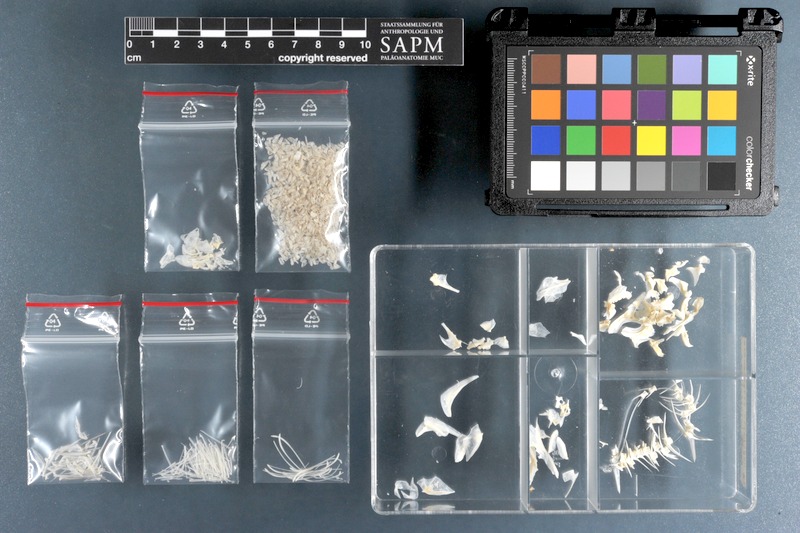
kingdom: Animalia
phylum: Chordata
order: Perciformes
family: Lethrinidae
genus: Monotaxis
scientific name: Monotaxis grandoculis
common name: Bigeye emperor
